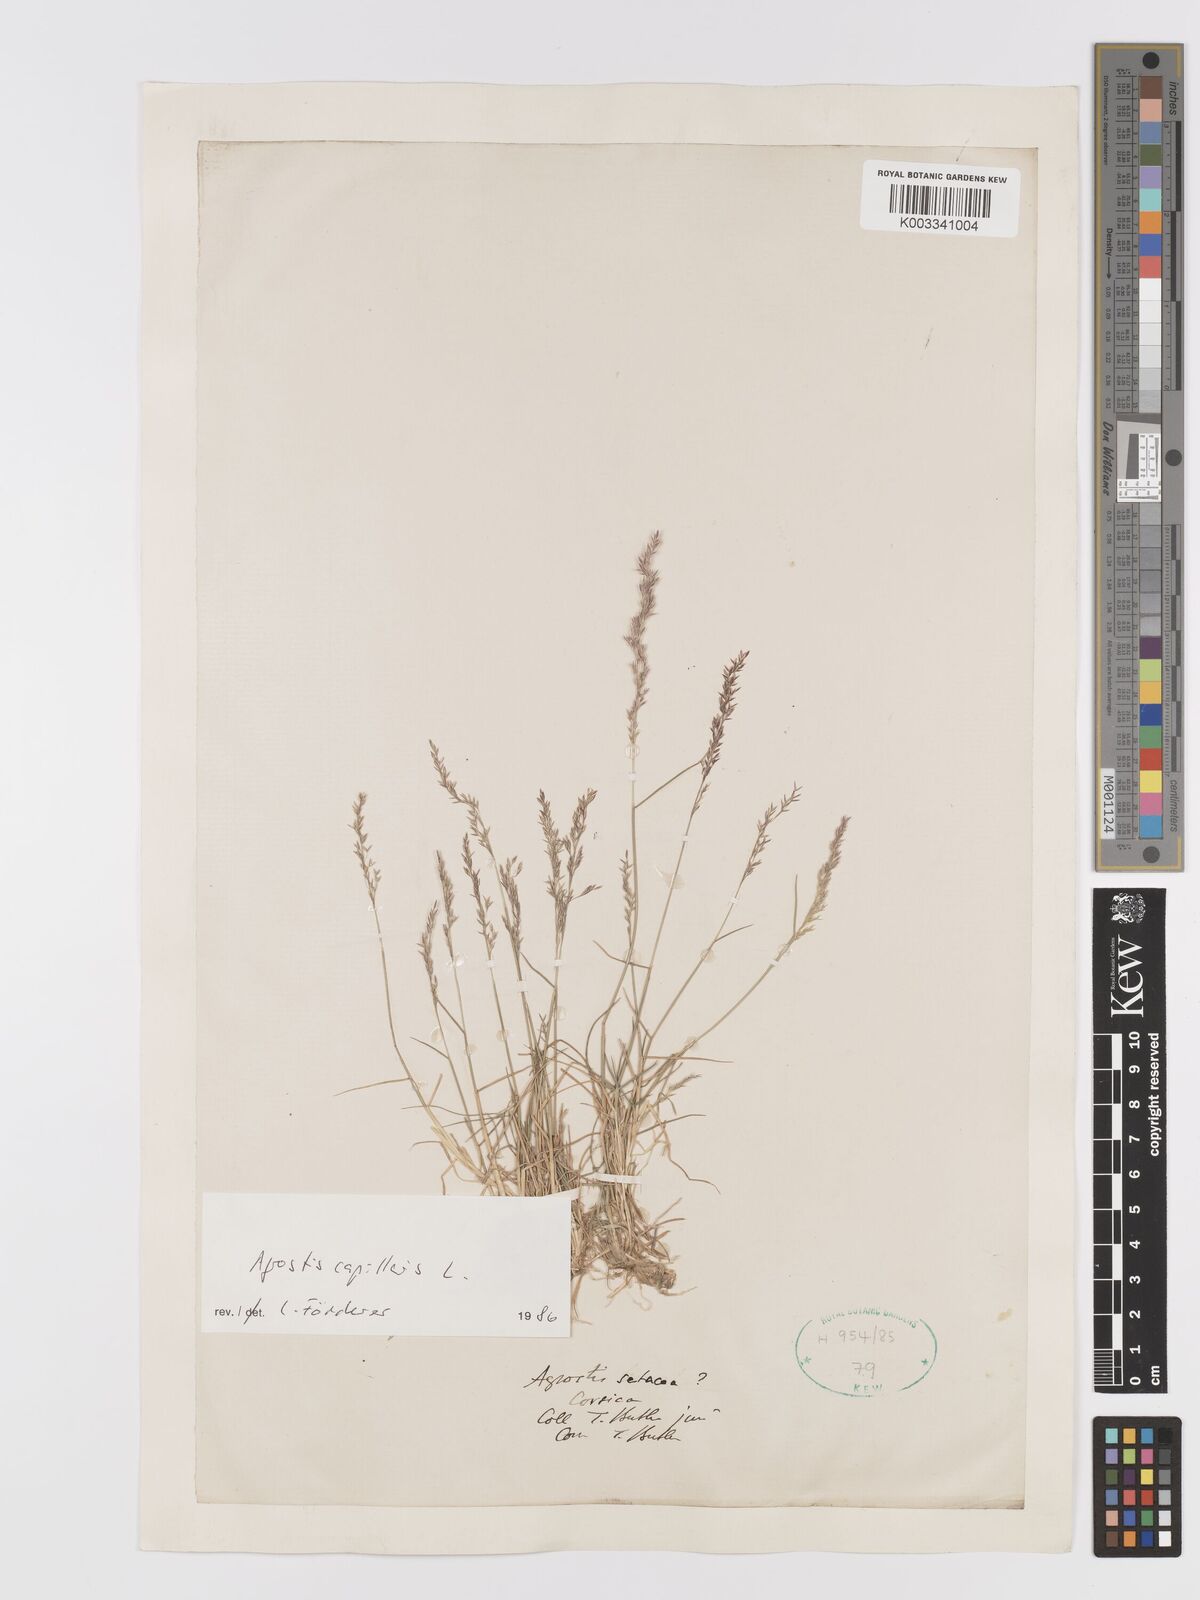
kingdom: Plantae
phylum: Tracheophyta
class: Liliopsida
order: Poales
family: Poaceae
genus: Agrostis
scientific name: Agrostis capillaris
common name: Colonial bentgrass
